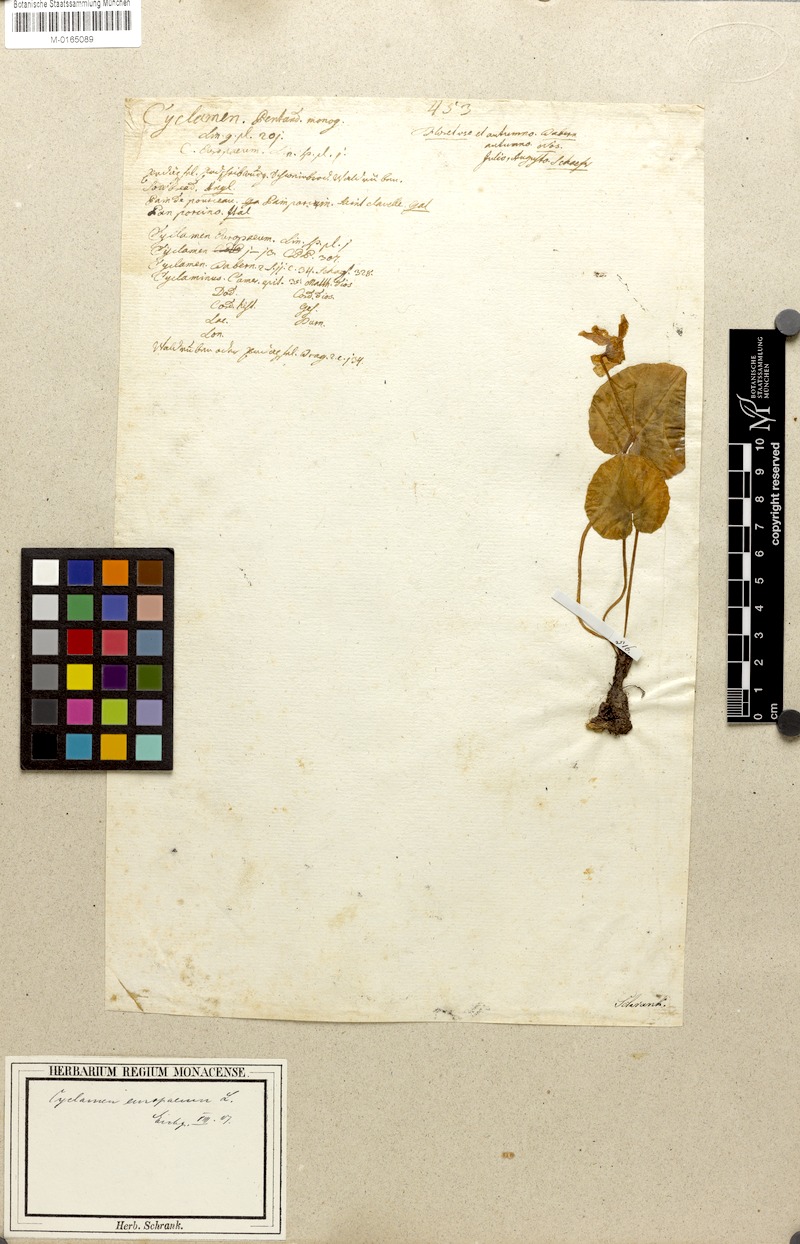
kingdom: Plantae
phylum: Tracheophyta
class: Magnoliopsida
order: Ericales
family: Primulaceae
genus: Cyclamen
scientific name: Cyclamen purpurascens
